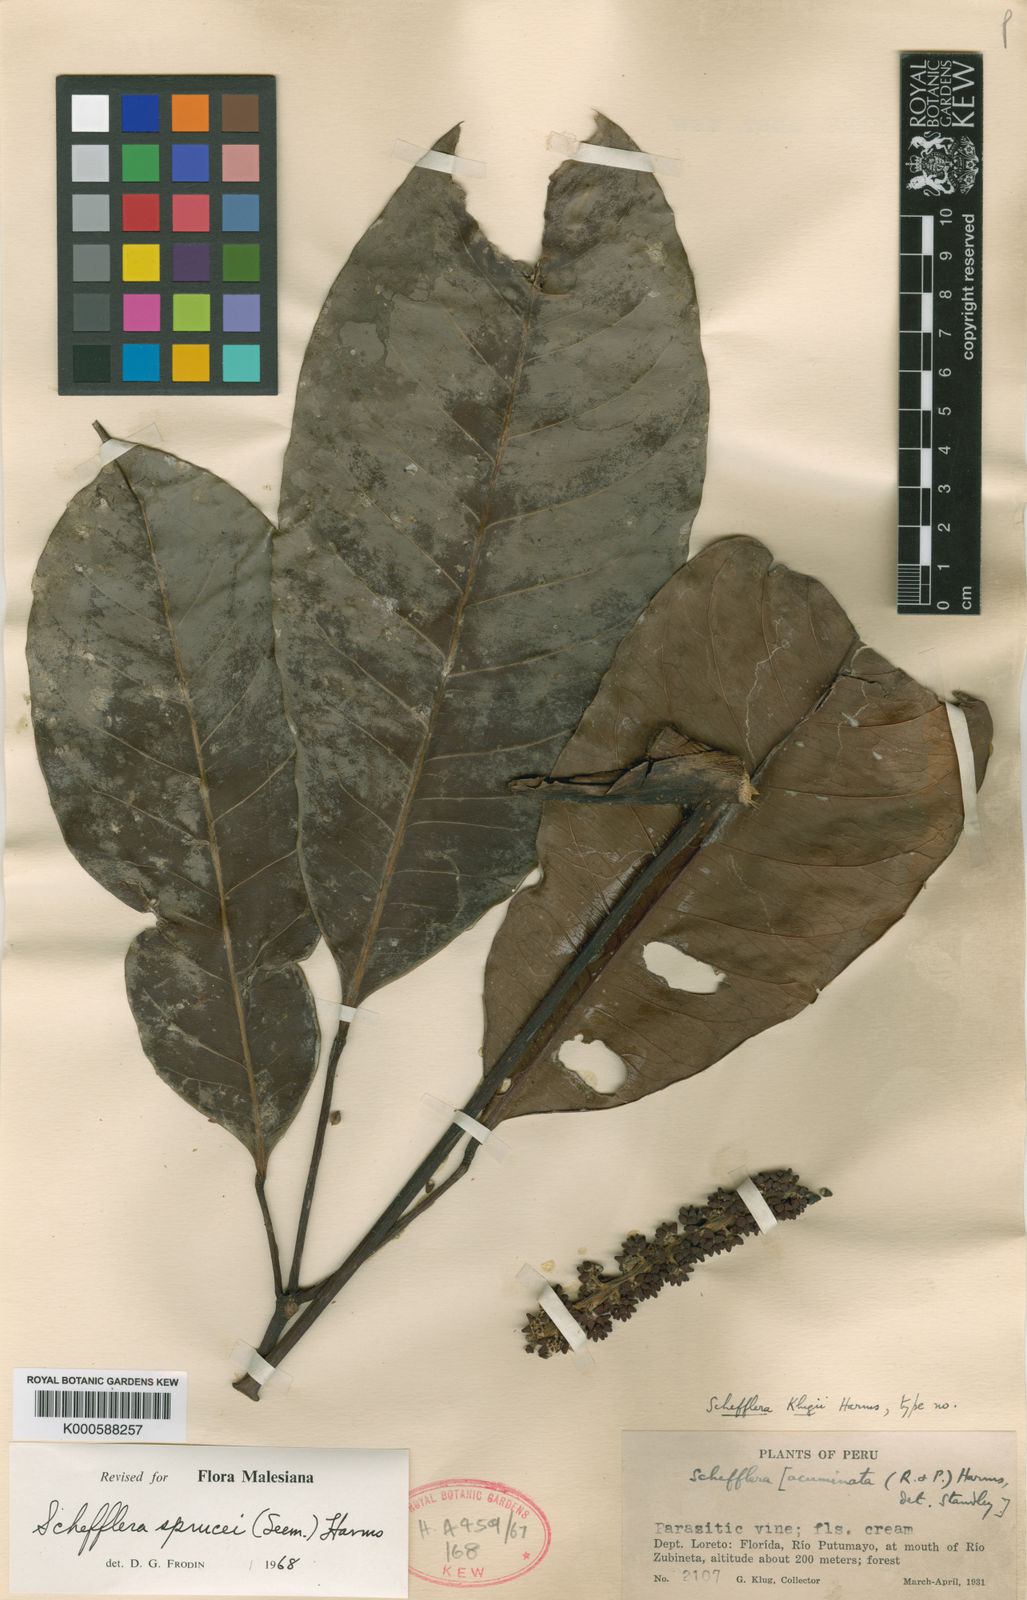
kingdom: Plantae
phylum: Tracheophyta
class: Magnoliopsida
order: Apiales
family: Araliaceae
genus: Sciodaphyllum
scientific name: Sciodaphyllum sprucei
